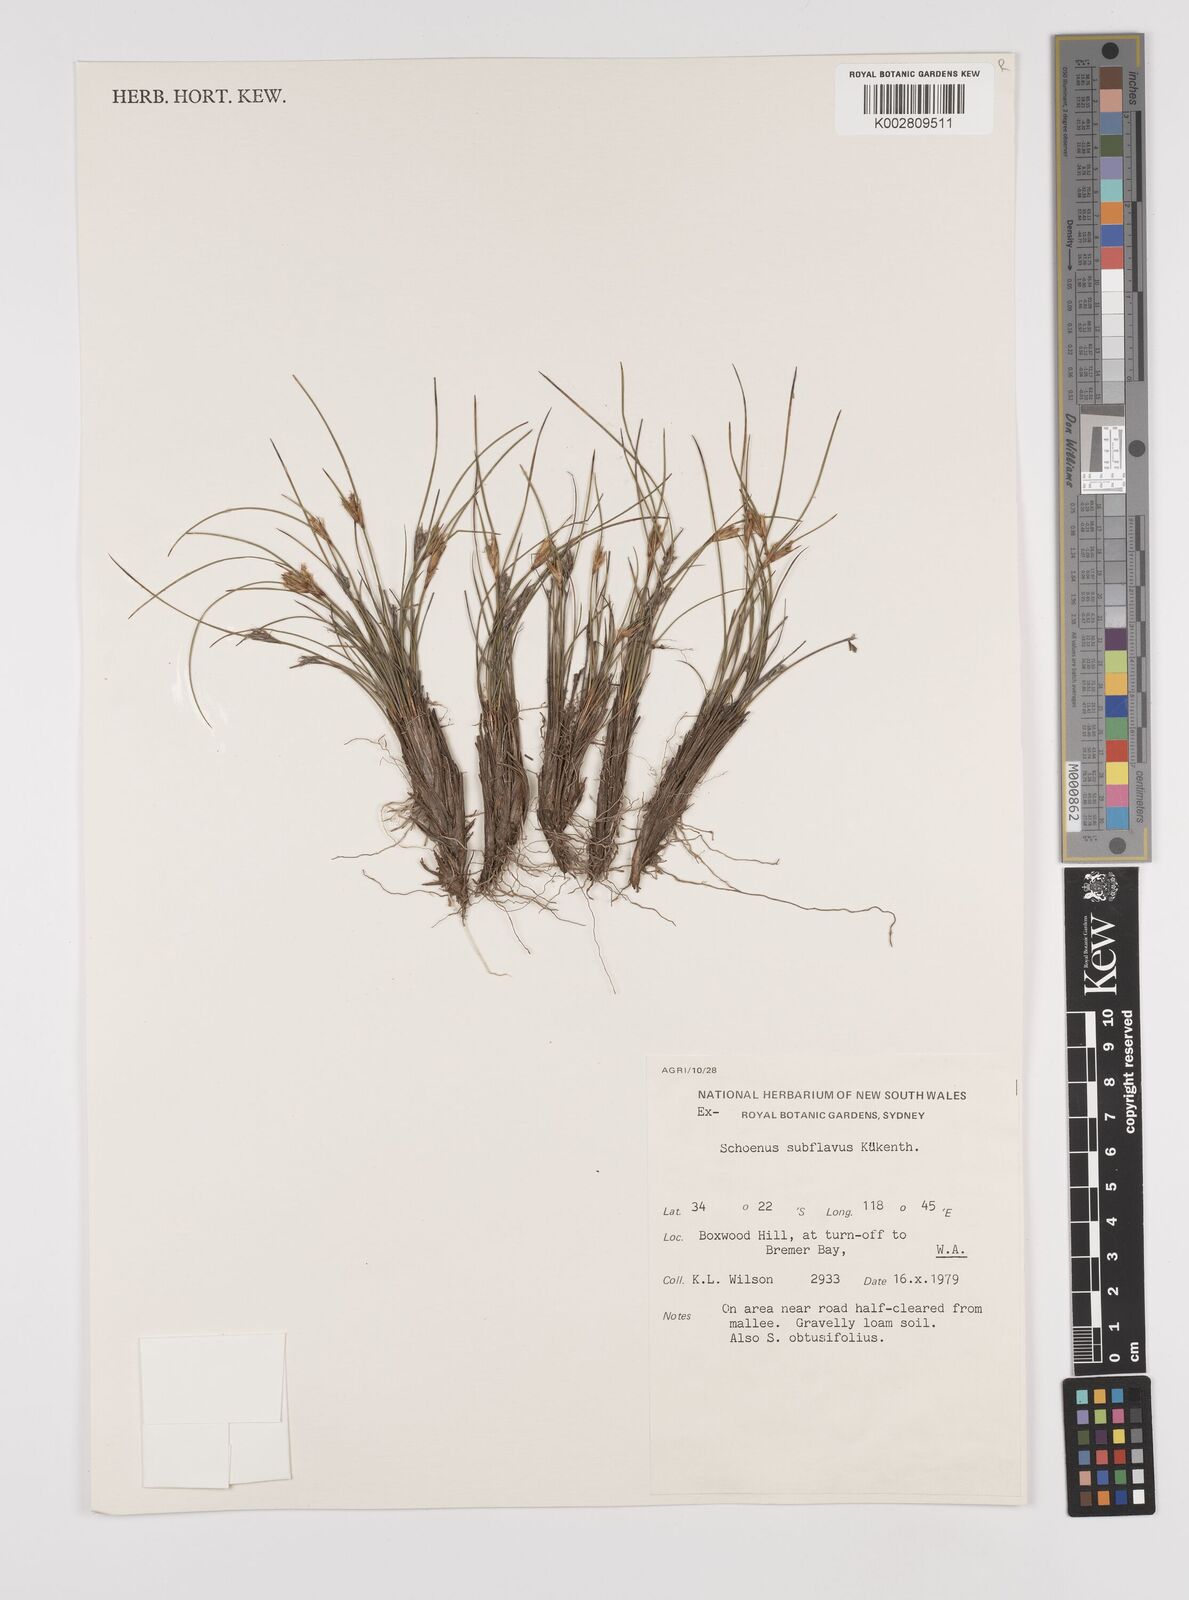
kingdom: Plantae
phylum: Tracheophyta
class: Liliopsida
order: Poales
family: Cyperaceae
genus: Schoenus
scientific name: Schoenus subflavus
